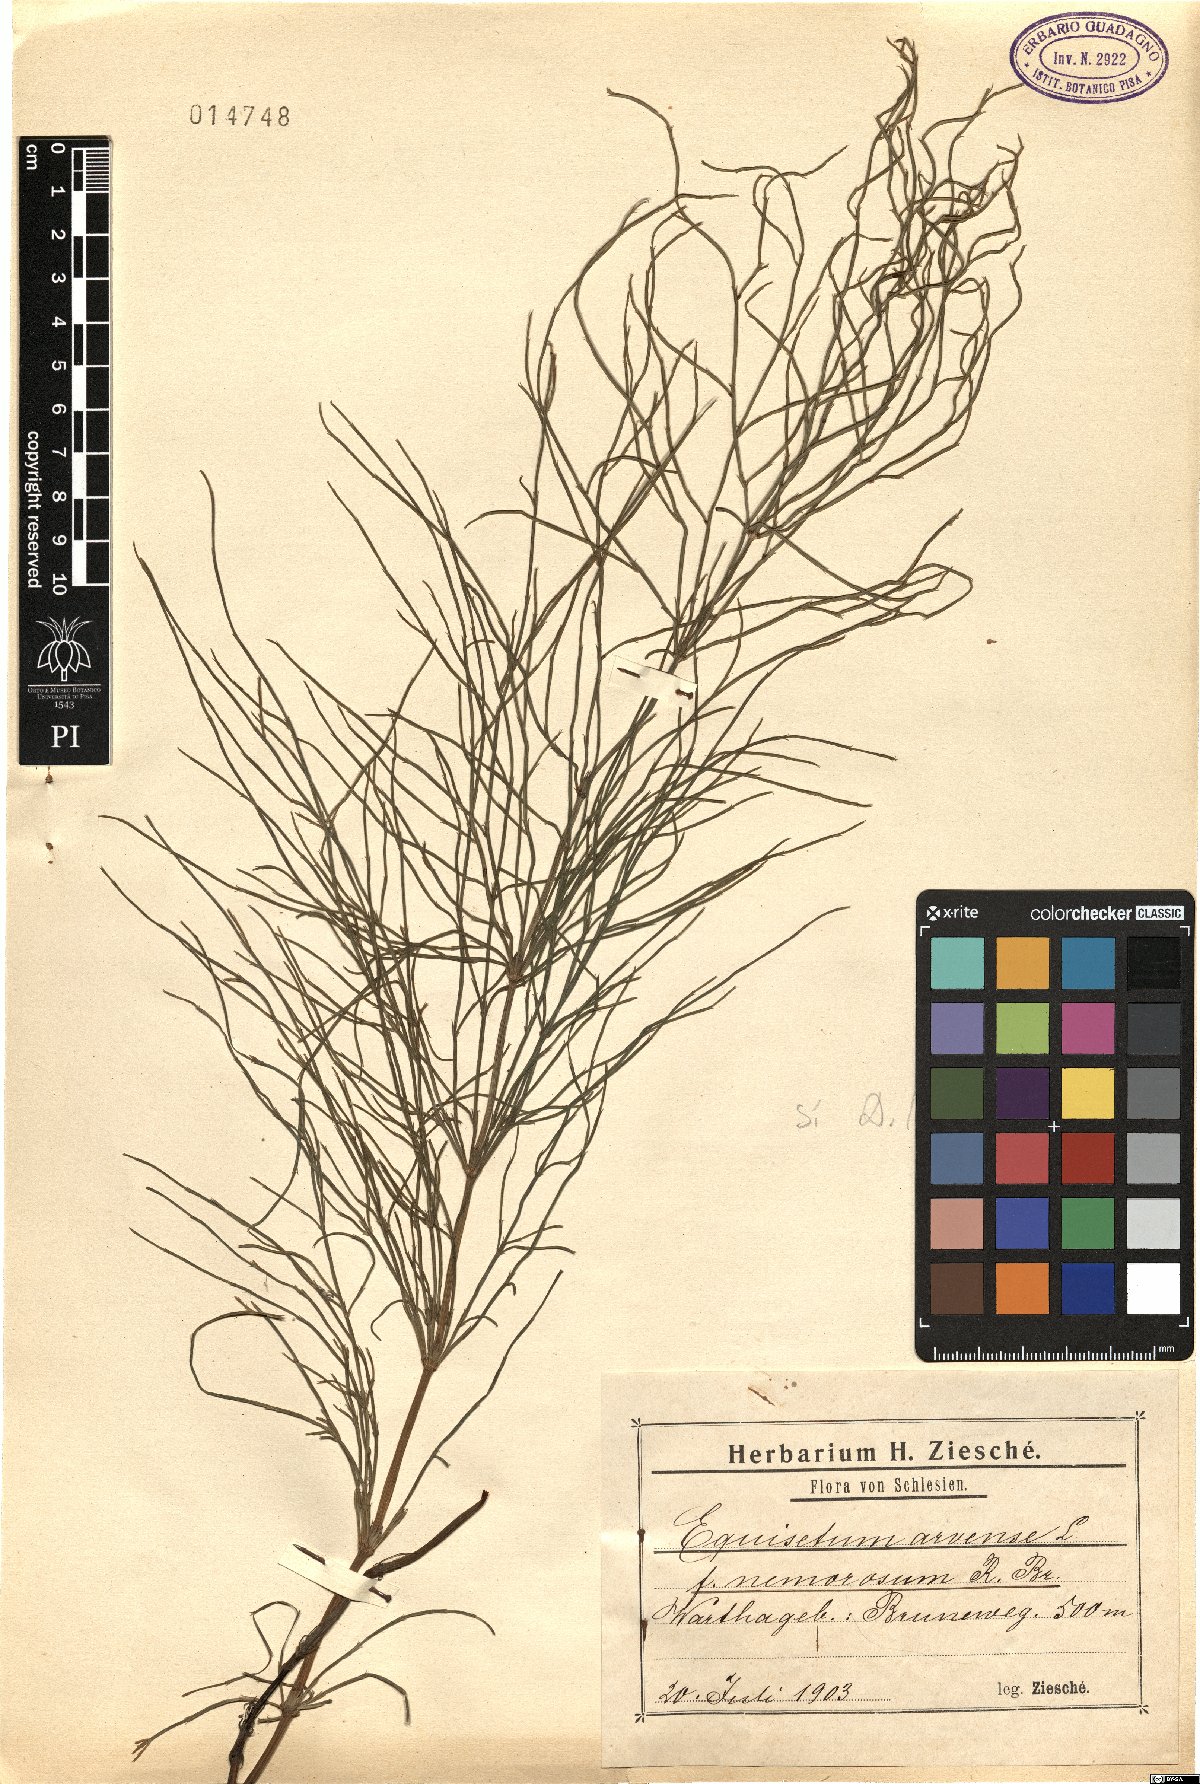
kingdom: Plantae
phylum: Tracheophyta
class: Polypodiopsida
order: Equisetales
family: Equisetaceae
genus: Equisetum
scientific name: Equisetum arvense
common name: Field horsetail
